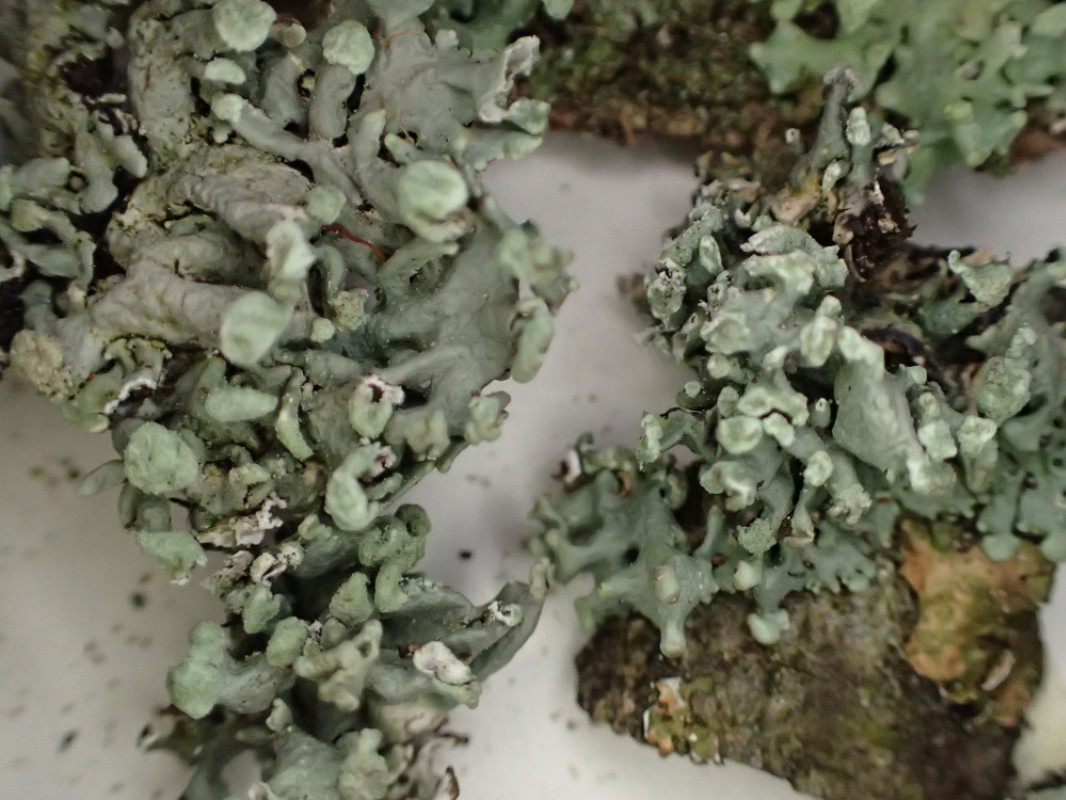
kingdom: Fungi
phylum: Ascomycota
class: Lecanoromycetes
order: Lecanorales
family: Parmeliaceae
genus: Hypogymnia
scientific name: Hypogymnia tubulosa
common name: finger-kvistlav
